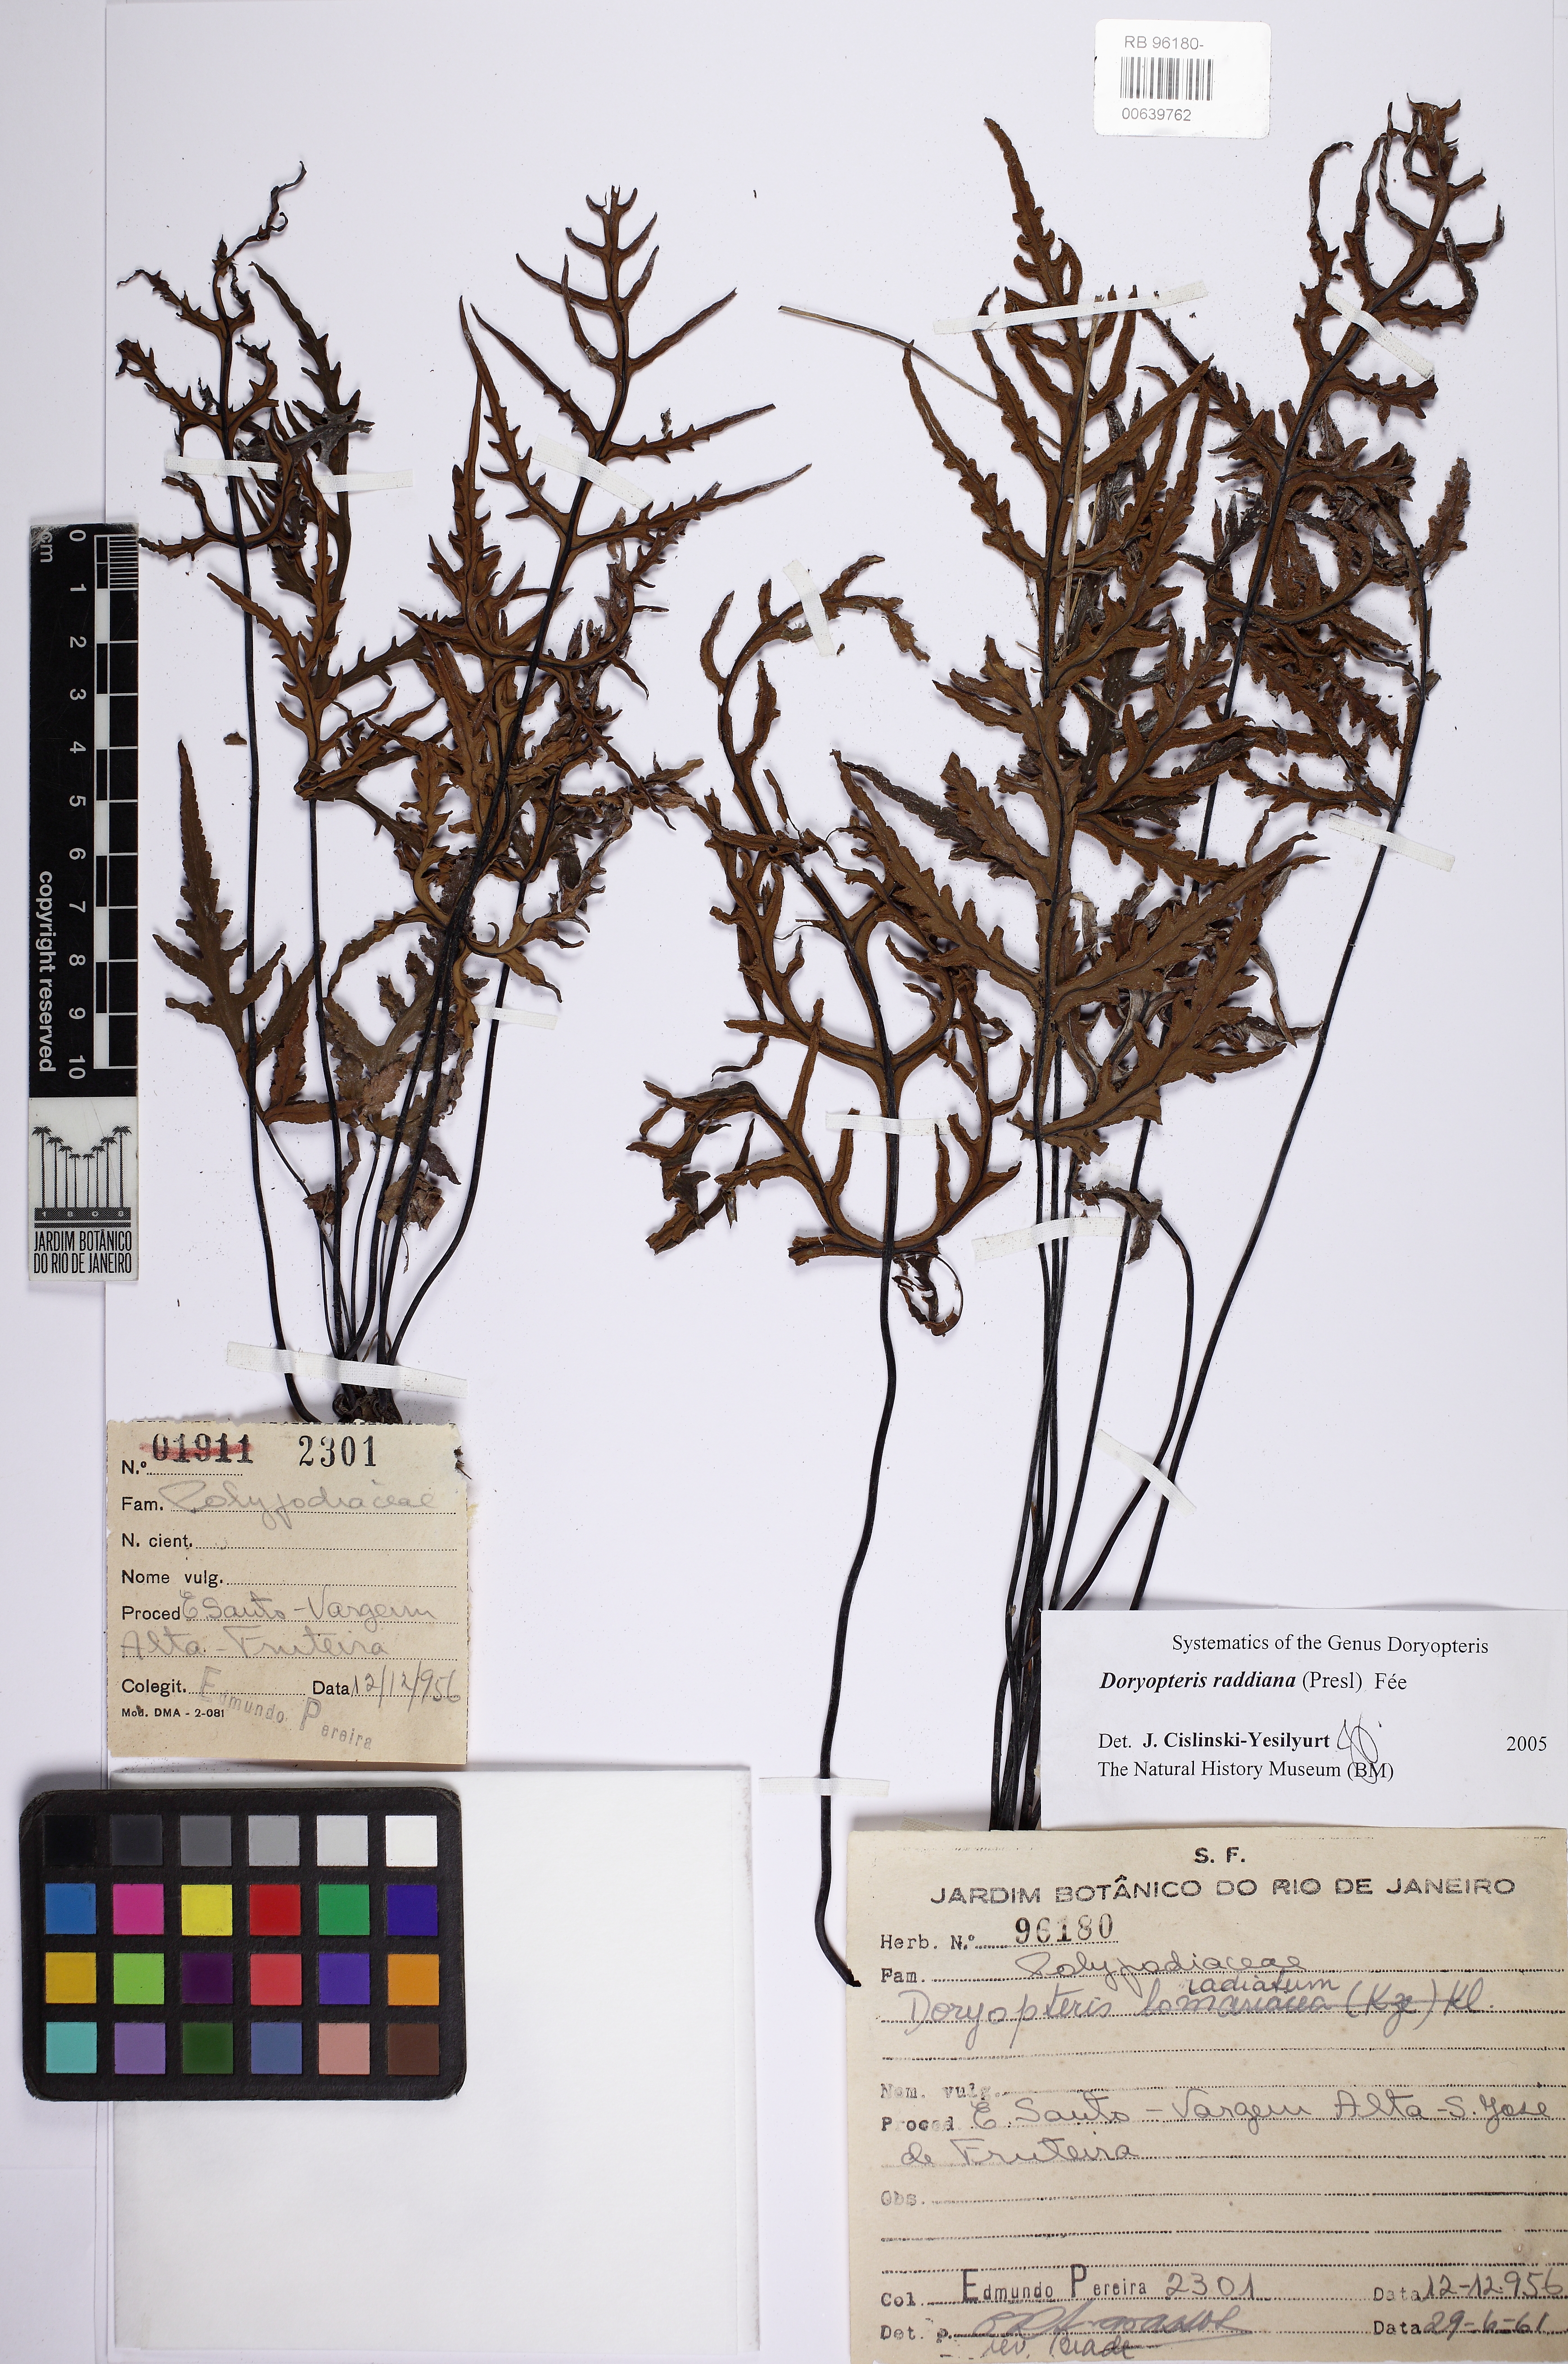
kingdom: Plantae
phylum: Tracheophyta
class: Polypodiopsida
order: Polypodiales
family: Pteridaceae
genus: Doryopteris
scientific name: Doryopteris raddiana
